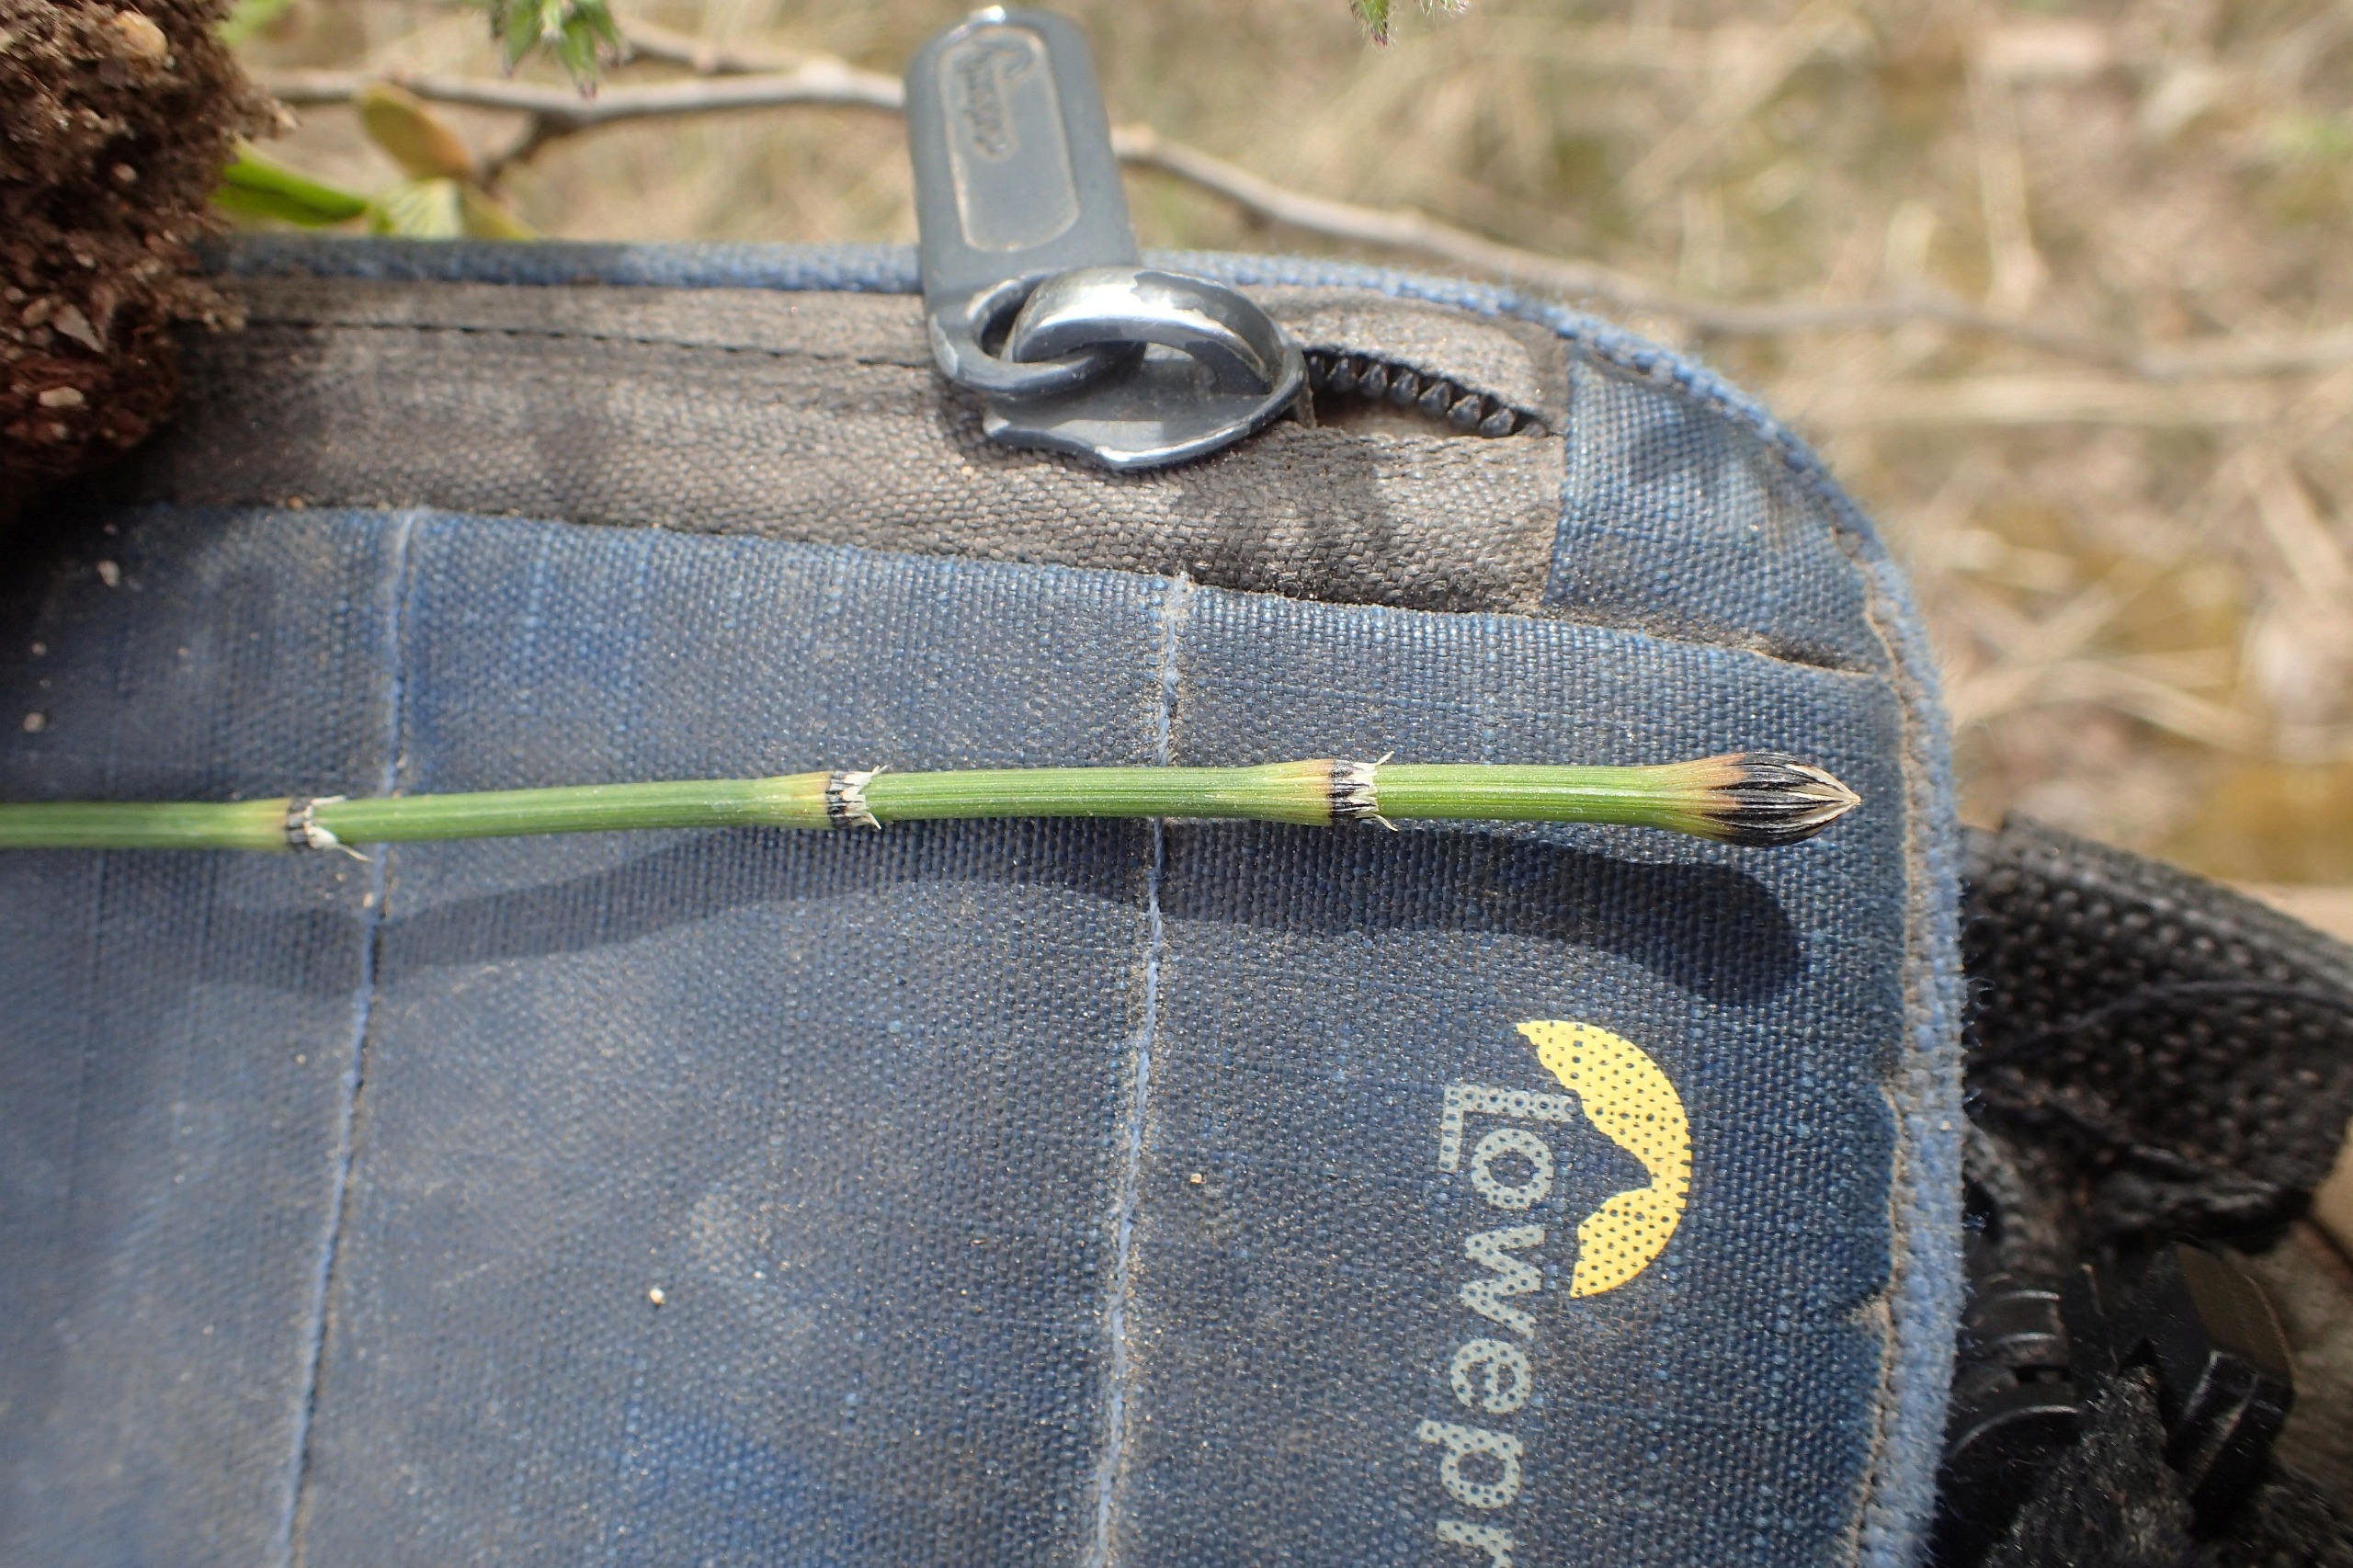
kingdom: Plantae
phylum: Tracheophyta
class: Polypodiopsida
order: Equisetales
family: Equisetaceae
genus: Equisetum
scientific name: Equisetum variegatum
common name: Liden padderok
